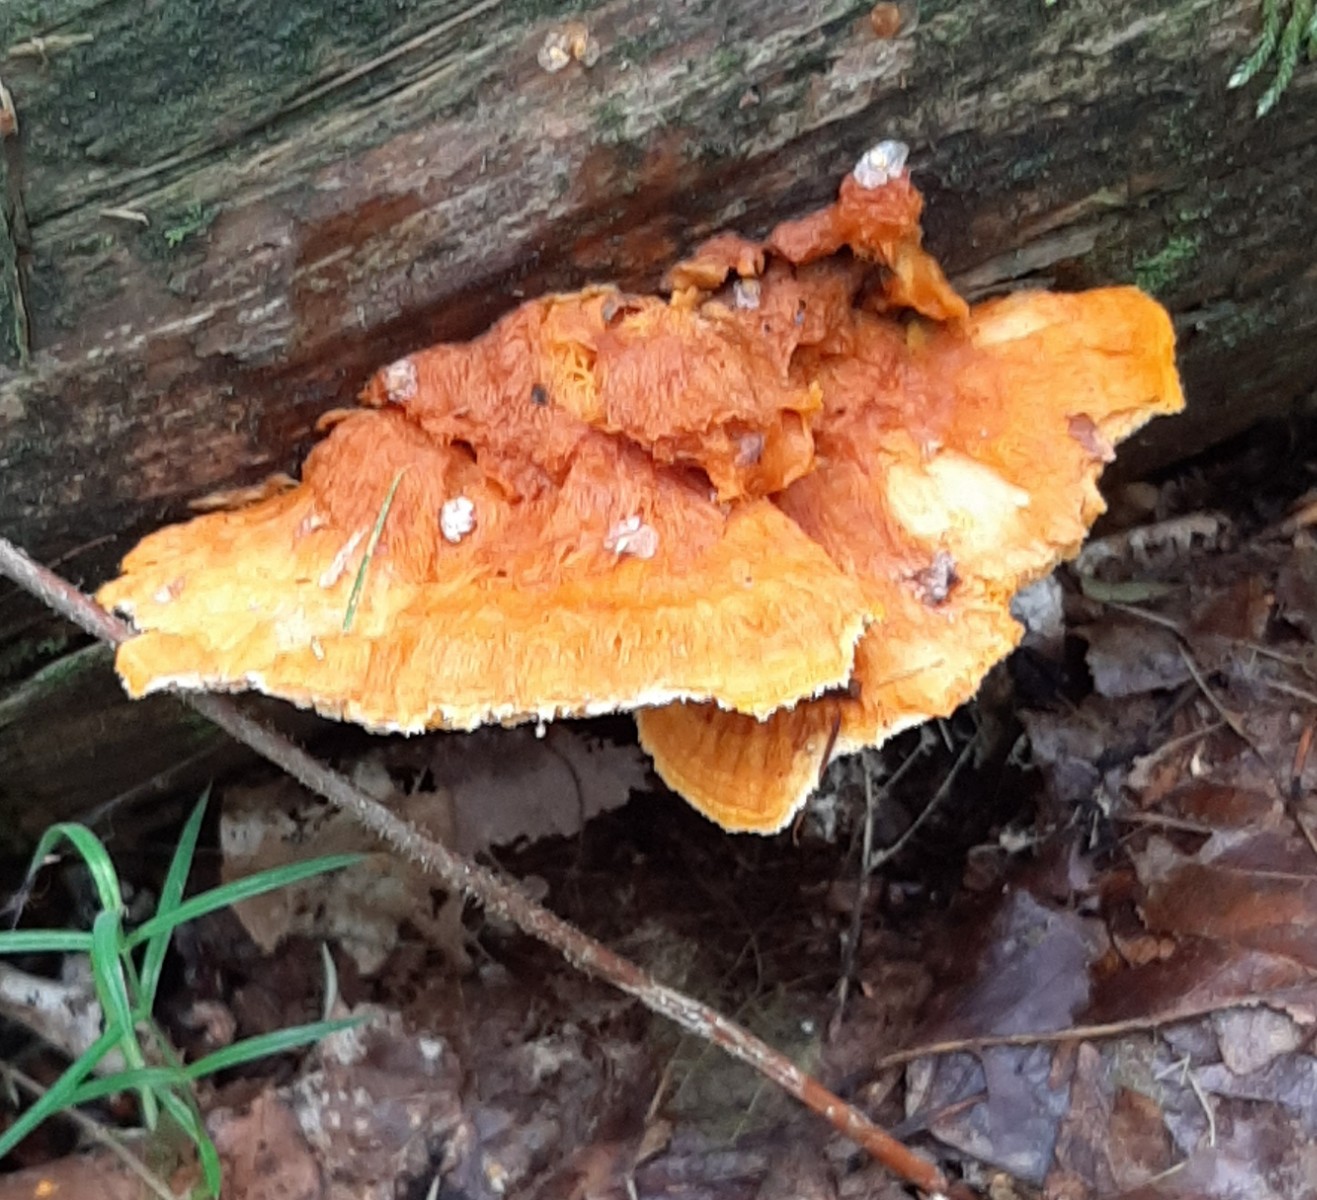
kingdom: Fungi
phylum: Basidiomycota
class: Agaricomycetes
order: Polyporales
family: Pycnoporellaceae
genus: Pycnoporellus
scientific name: Pycnoporellus fulgens
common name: flammeporesvamp
